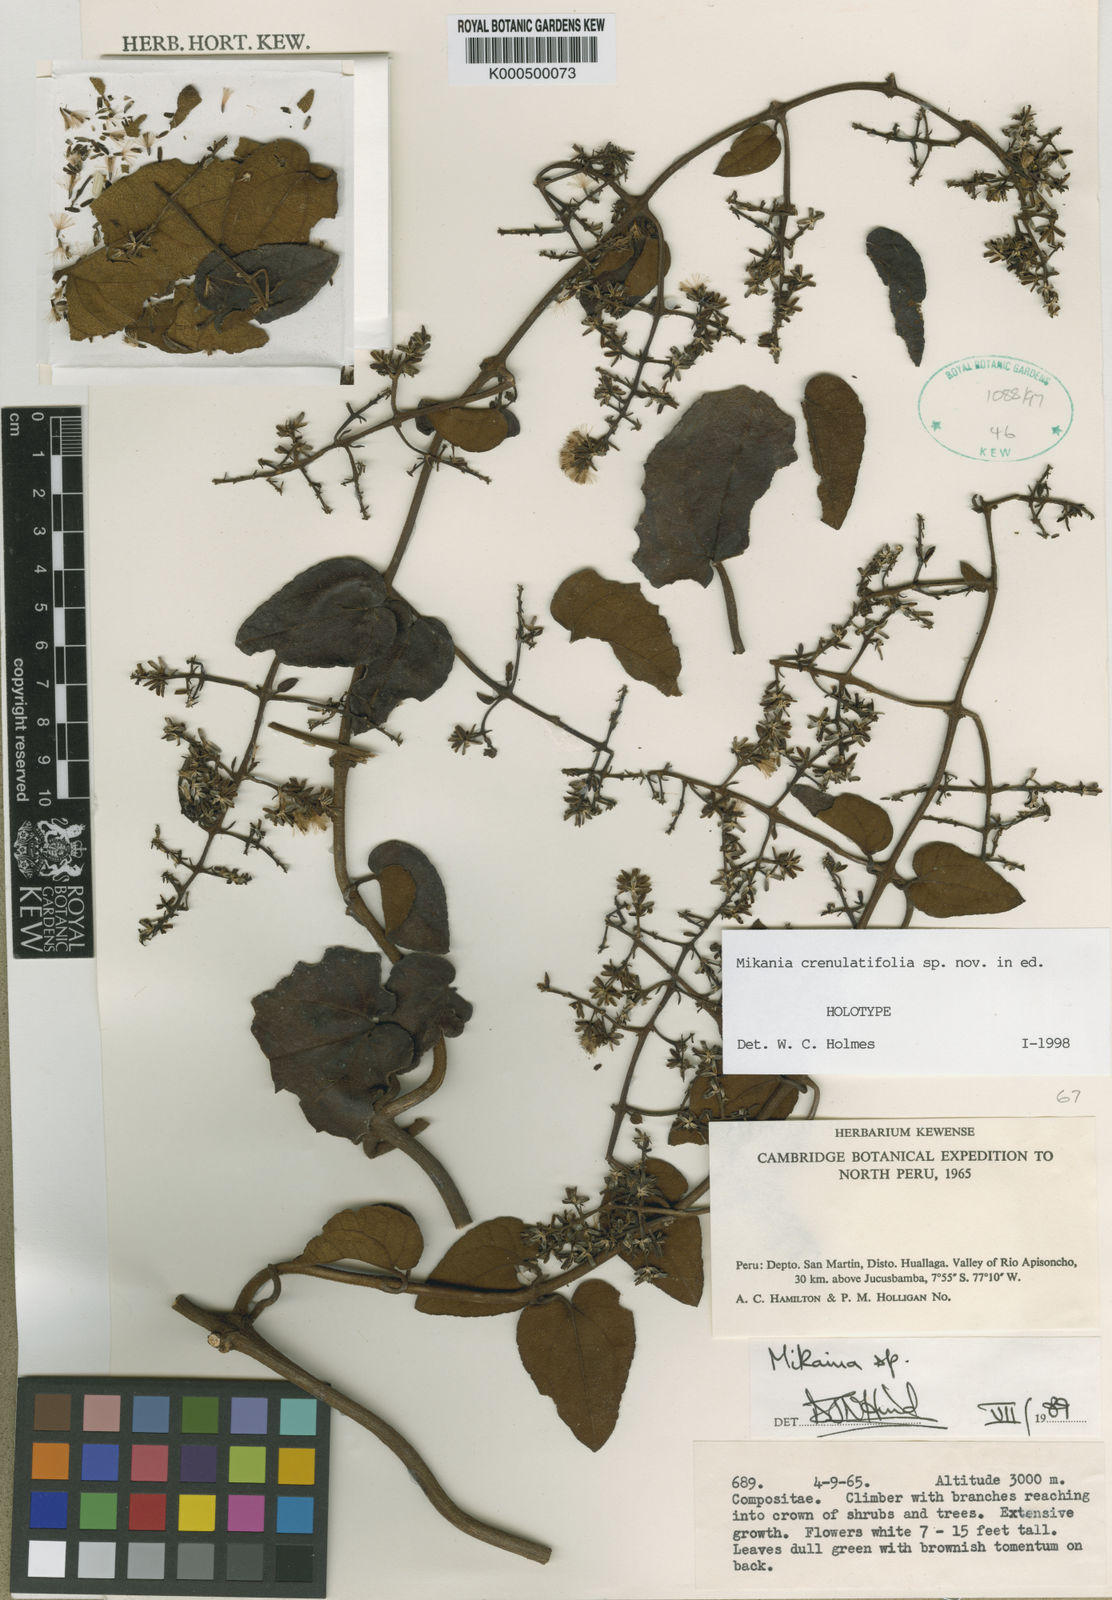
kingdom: Plantae
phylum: Tracheophyta
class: Magnoliopsida
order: Asterales
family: Asteraceae
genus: Mikania
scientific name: Mikania
